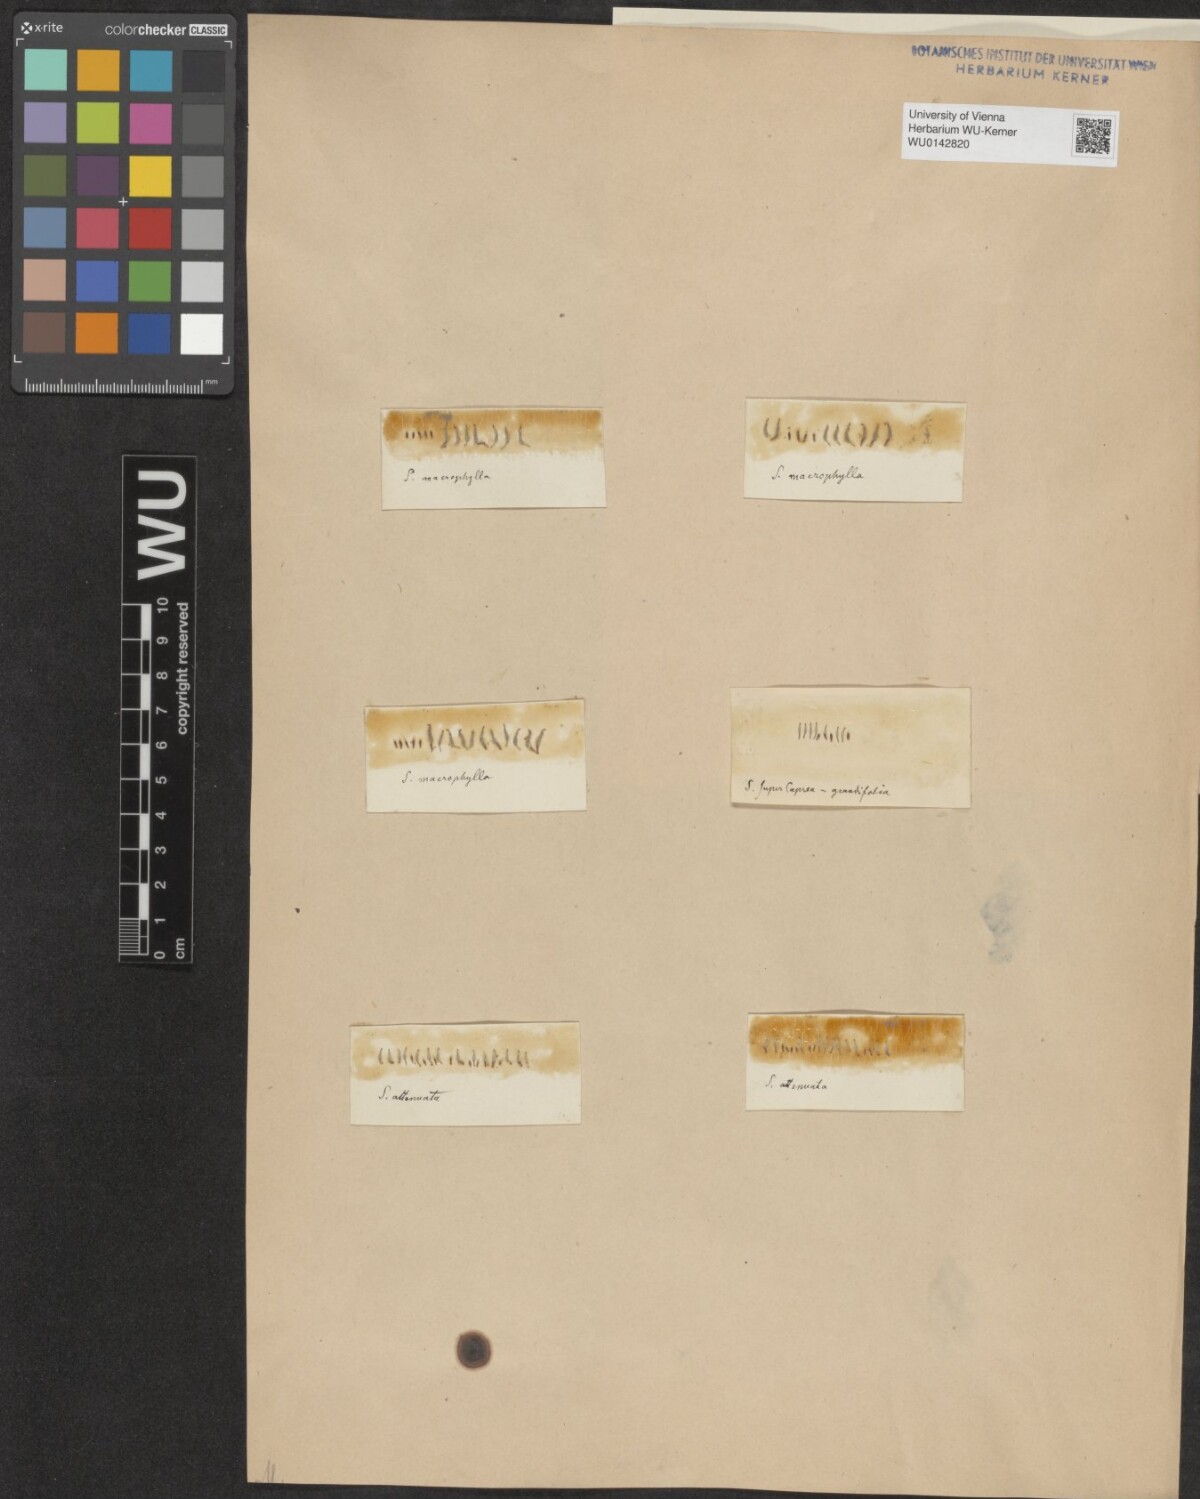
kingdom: Plantae
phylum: Tracheophyta
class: Magnoliopsida
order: Malpighiales
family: Salicaceae
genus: Salix
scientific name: Salix macrophylla
